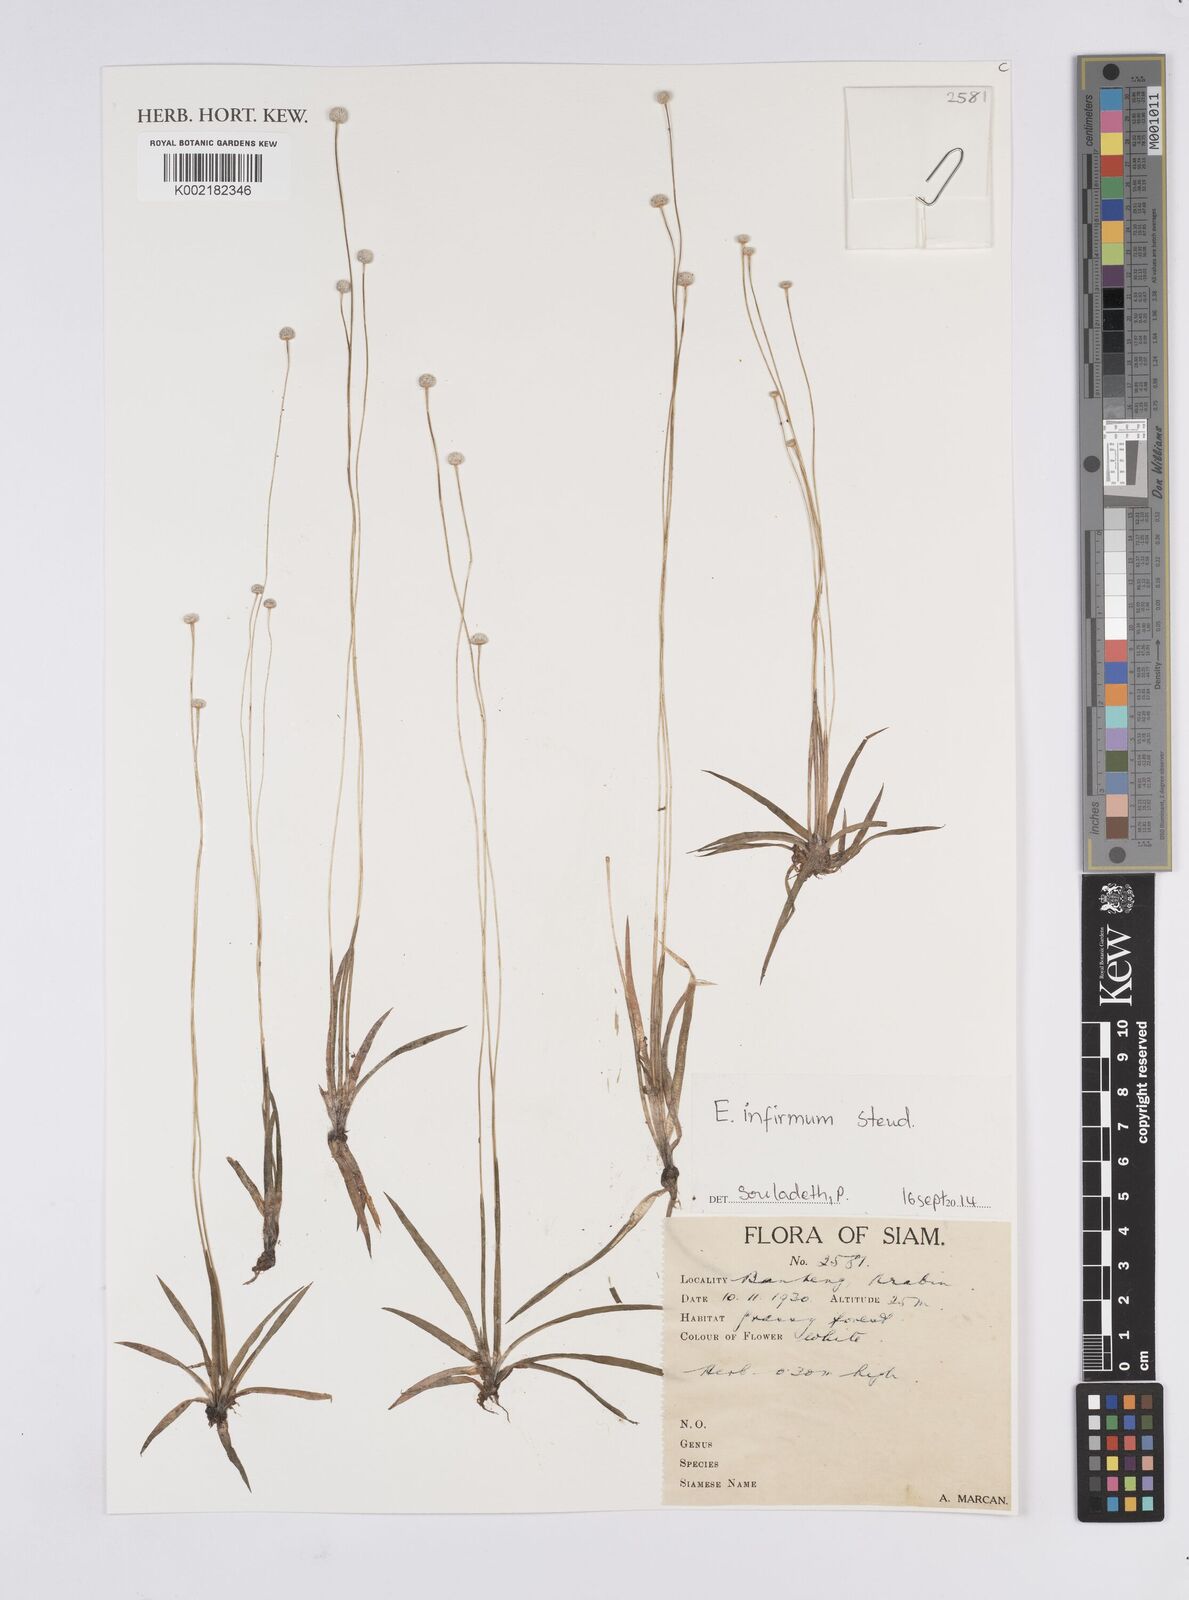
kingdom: Plantae
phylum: Tracheophyta
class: Liliopsida
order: Poales
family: Eriocaulaceae
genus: Eriocaulon
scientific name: Eriocaulon infirmum
